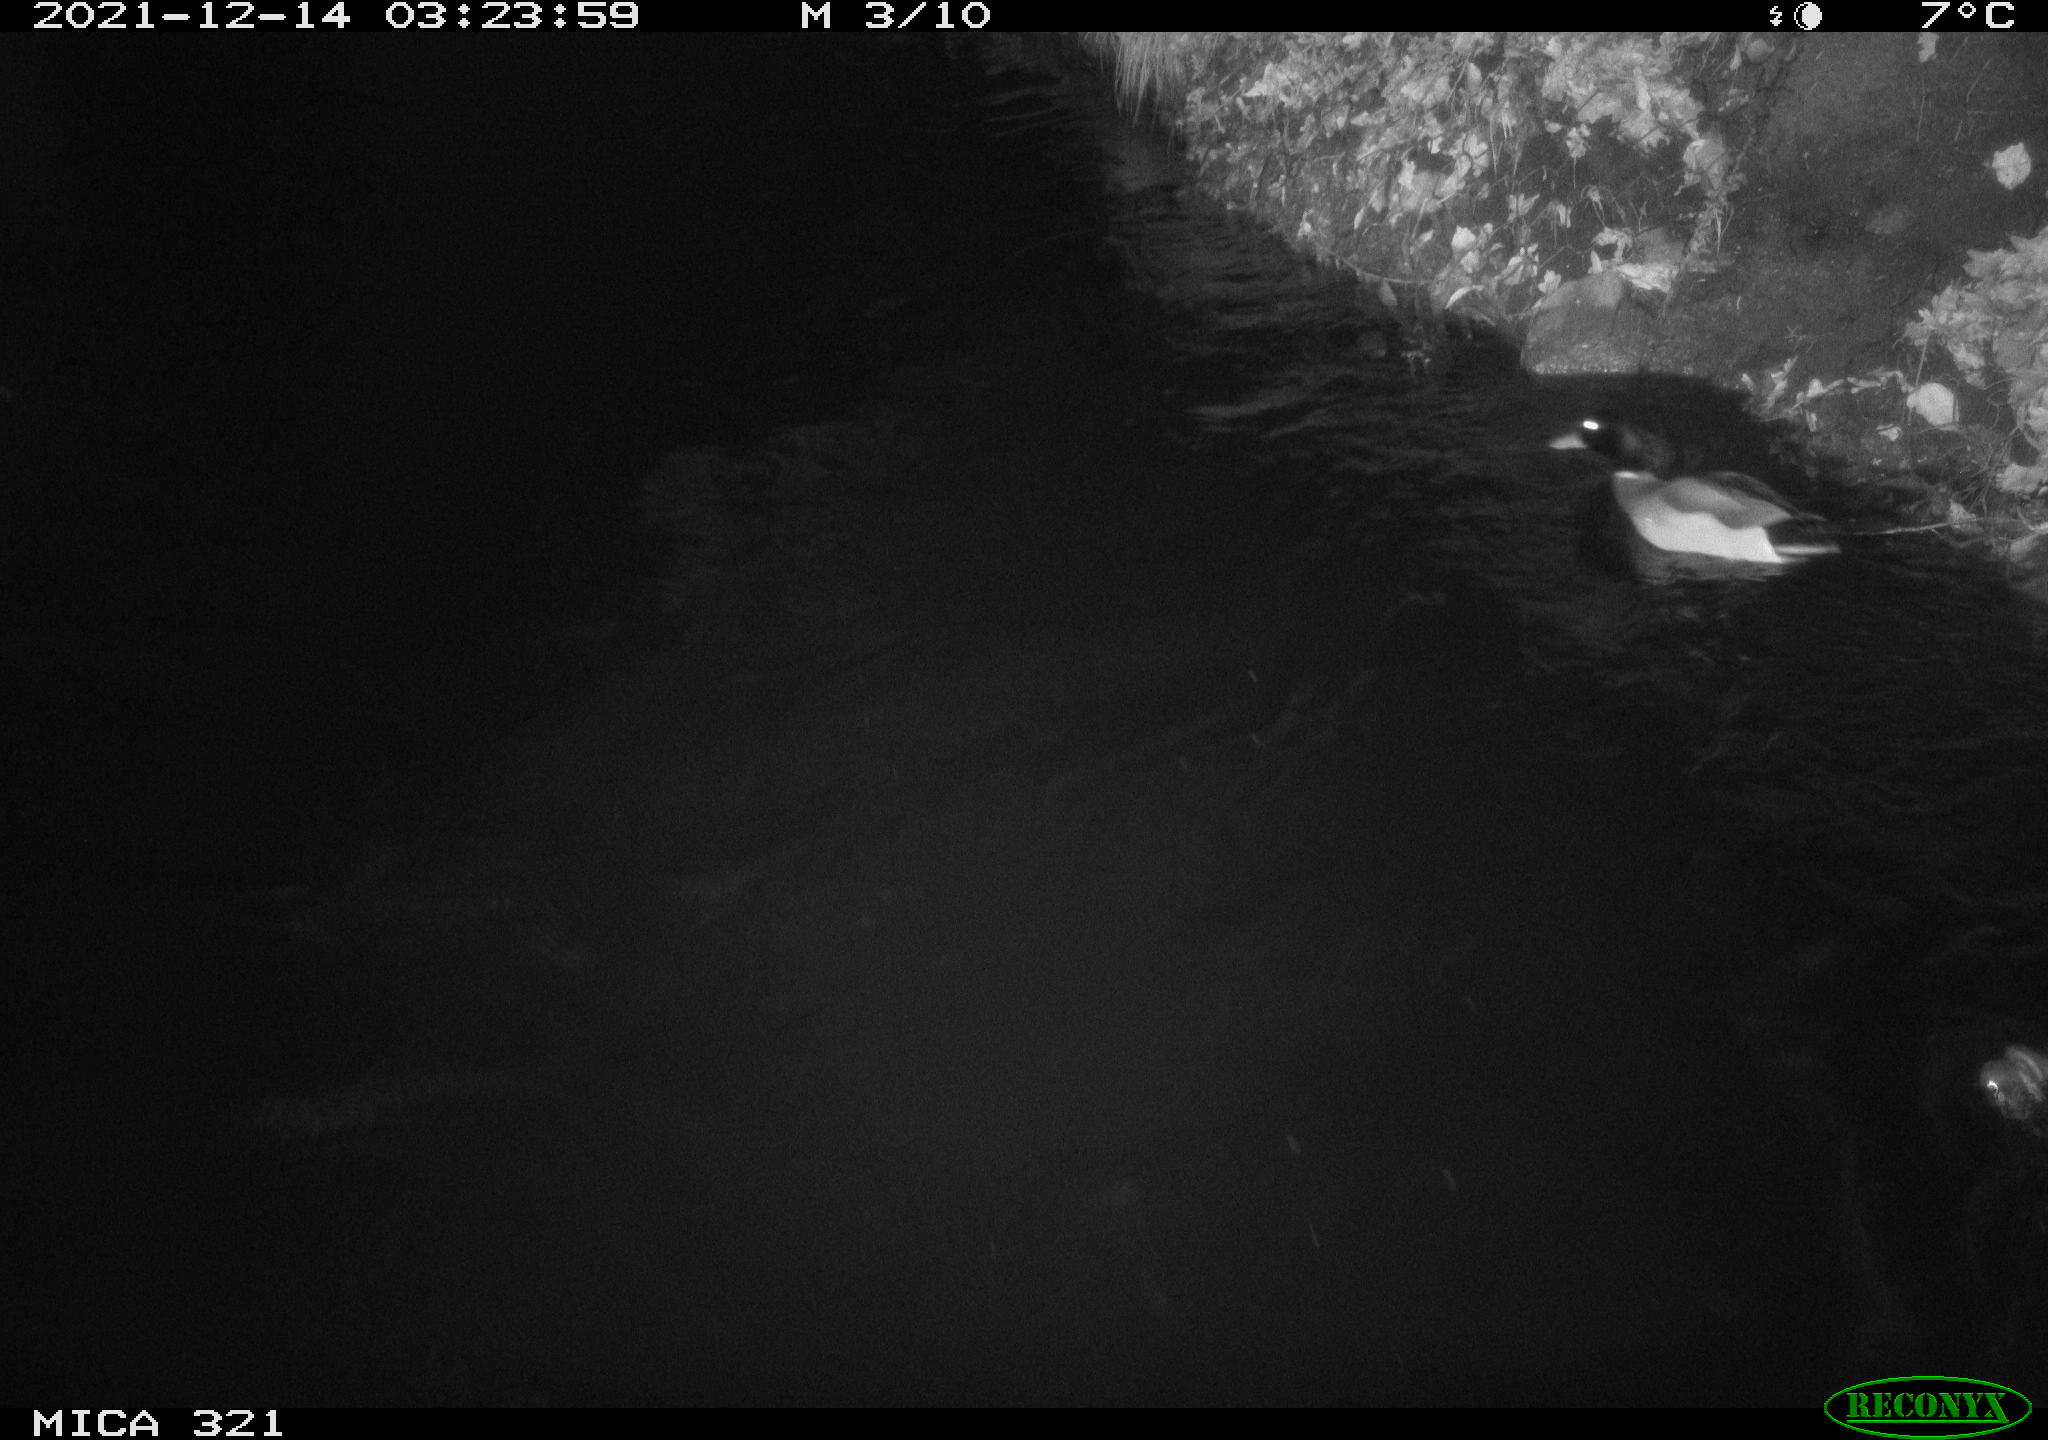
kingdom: Animalia
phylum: Chordata
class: Aves
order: Anseriformes
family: Anatidae
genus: Anas
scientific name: Anas
